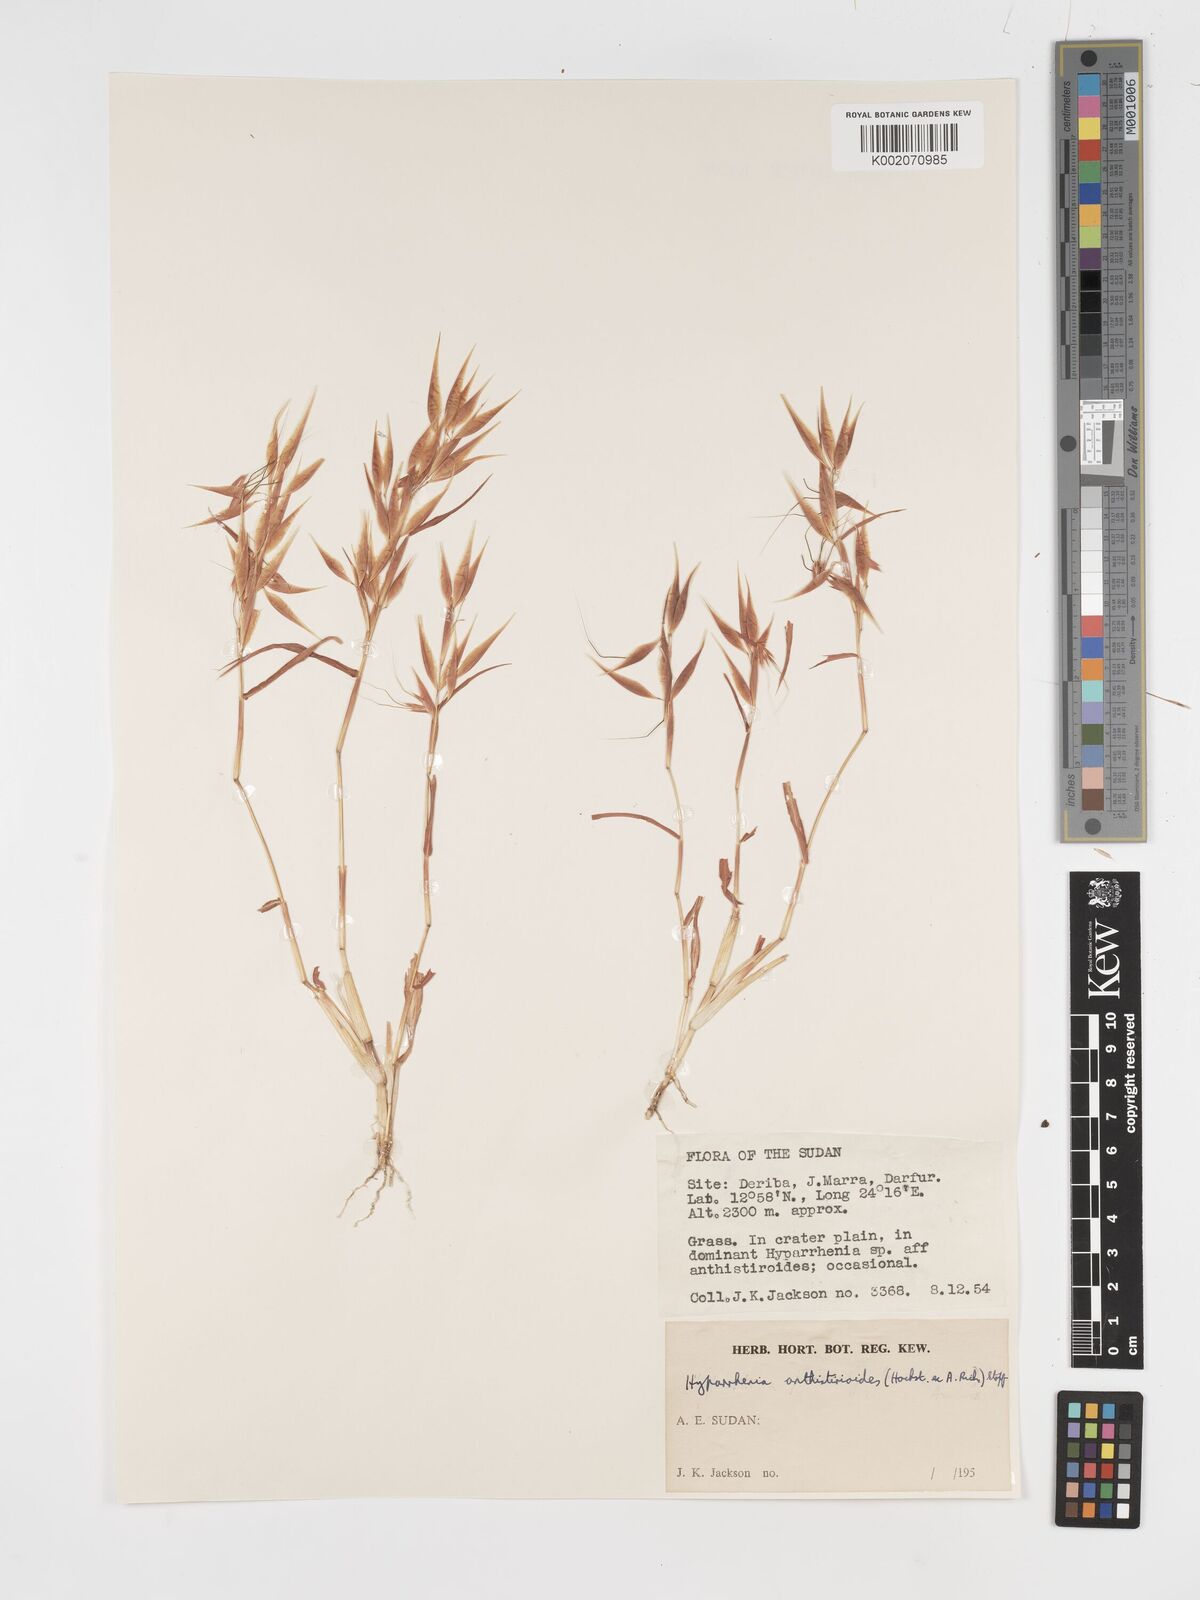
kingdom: Plantae
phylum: Tracheophyta
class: Liliopsida
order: Poales
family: Poaceae
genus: Hyparrhenia
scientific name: Hyparrhenia anthistirioides
